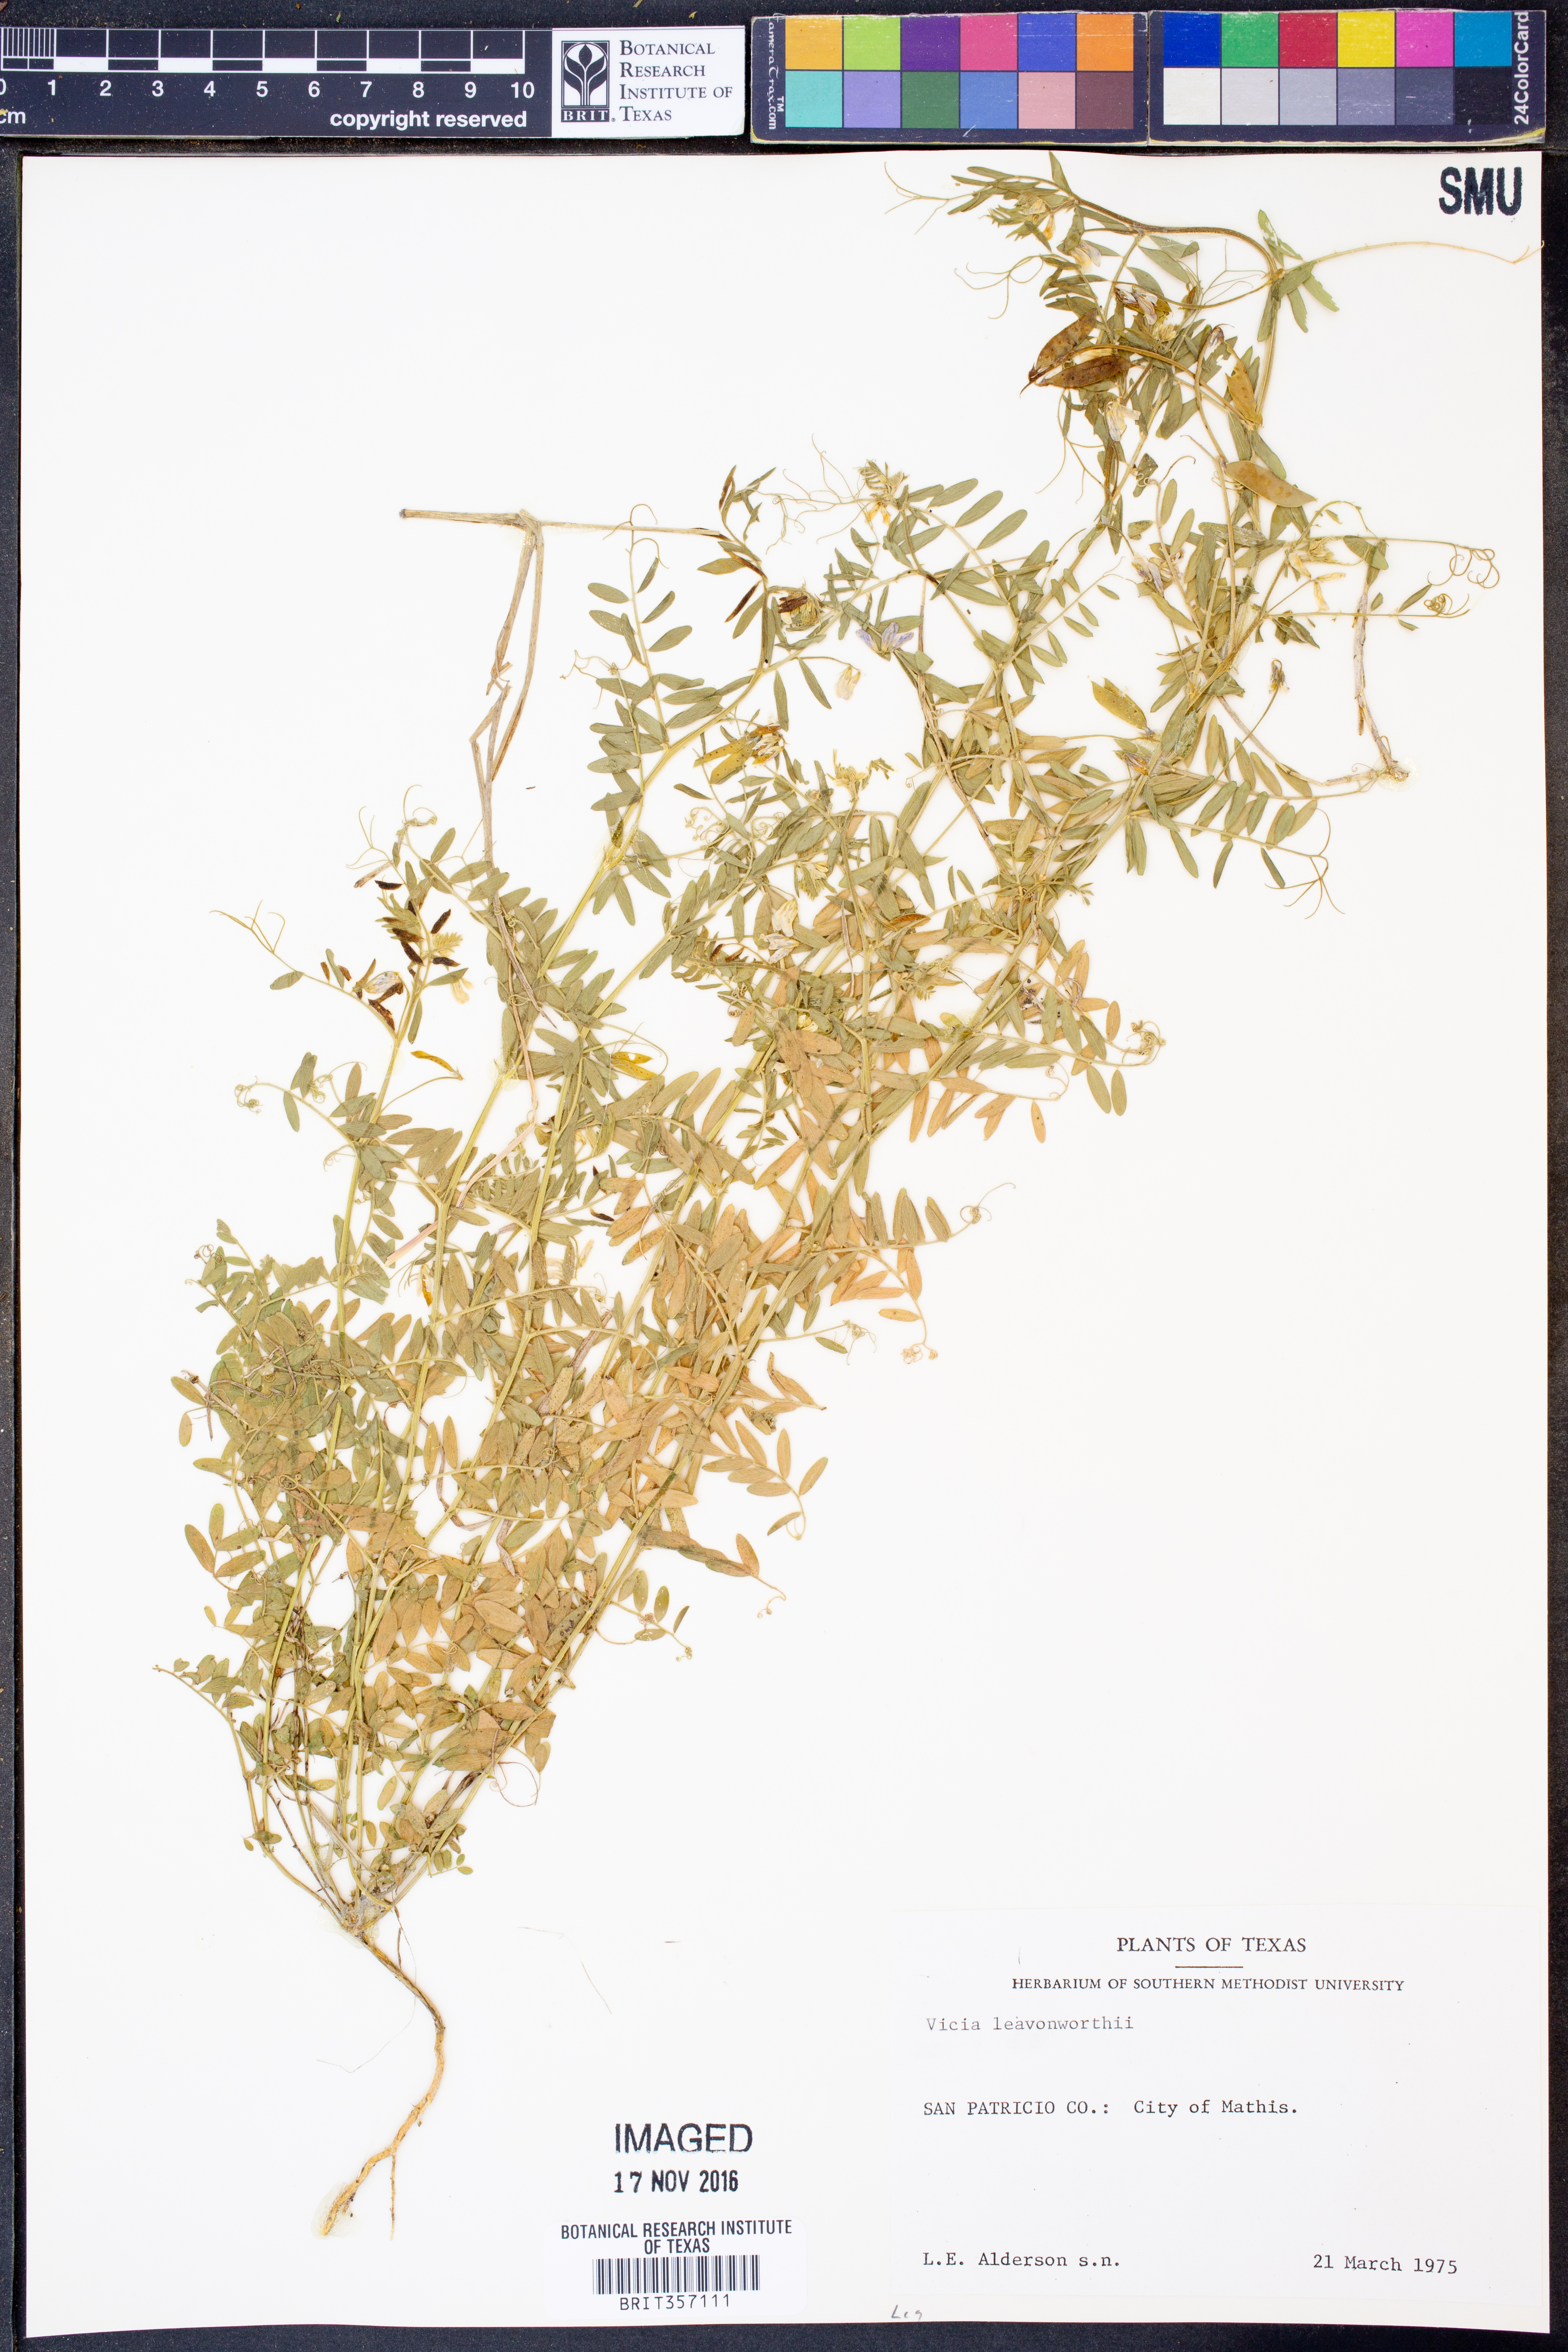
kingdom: Plantae
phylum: Tracheophyta
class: Magnoliopsida
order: Fabales
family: Fabaceae
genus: Vicia
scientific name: Vicia ludoviciana
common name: Louisiana vetch
